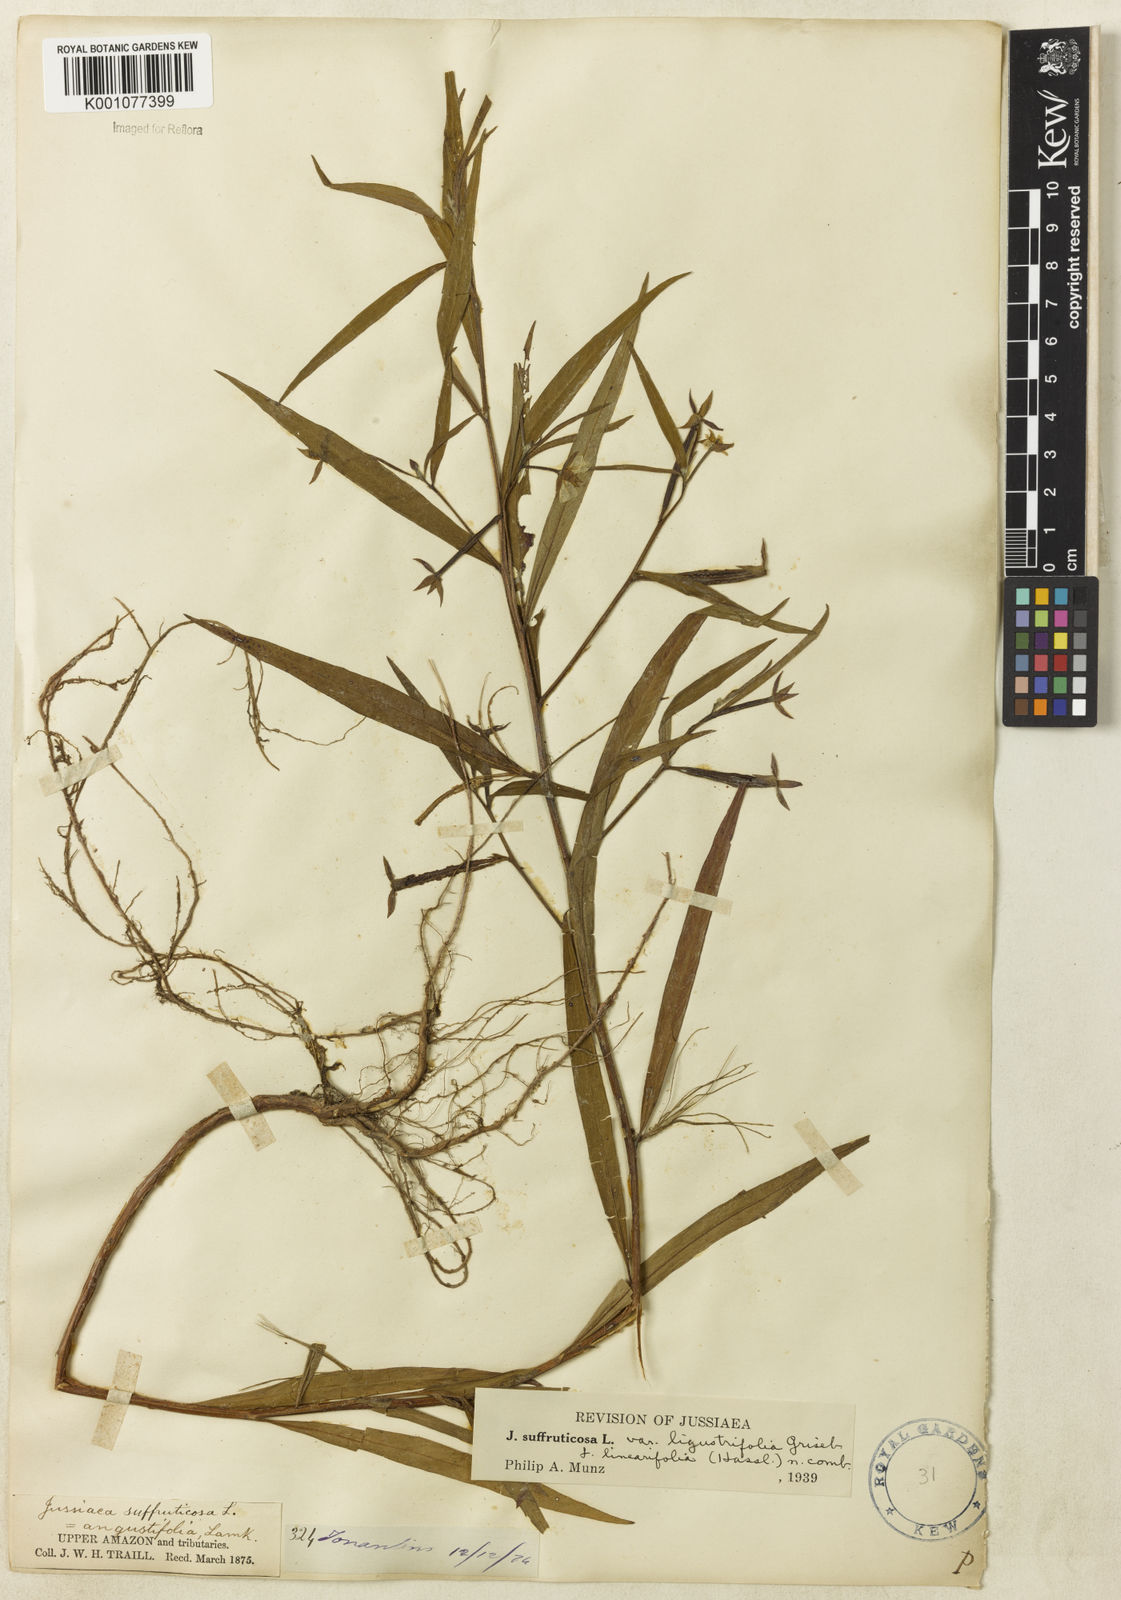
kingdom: Plantae
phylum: Tracheophyta
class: Magnoliopsida
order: Myrtales
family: Onagraceae
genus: Ludwigia
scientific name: Ludwigia octovalvis
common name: Water-primrose
